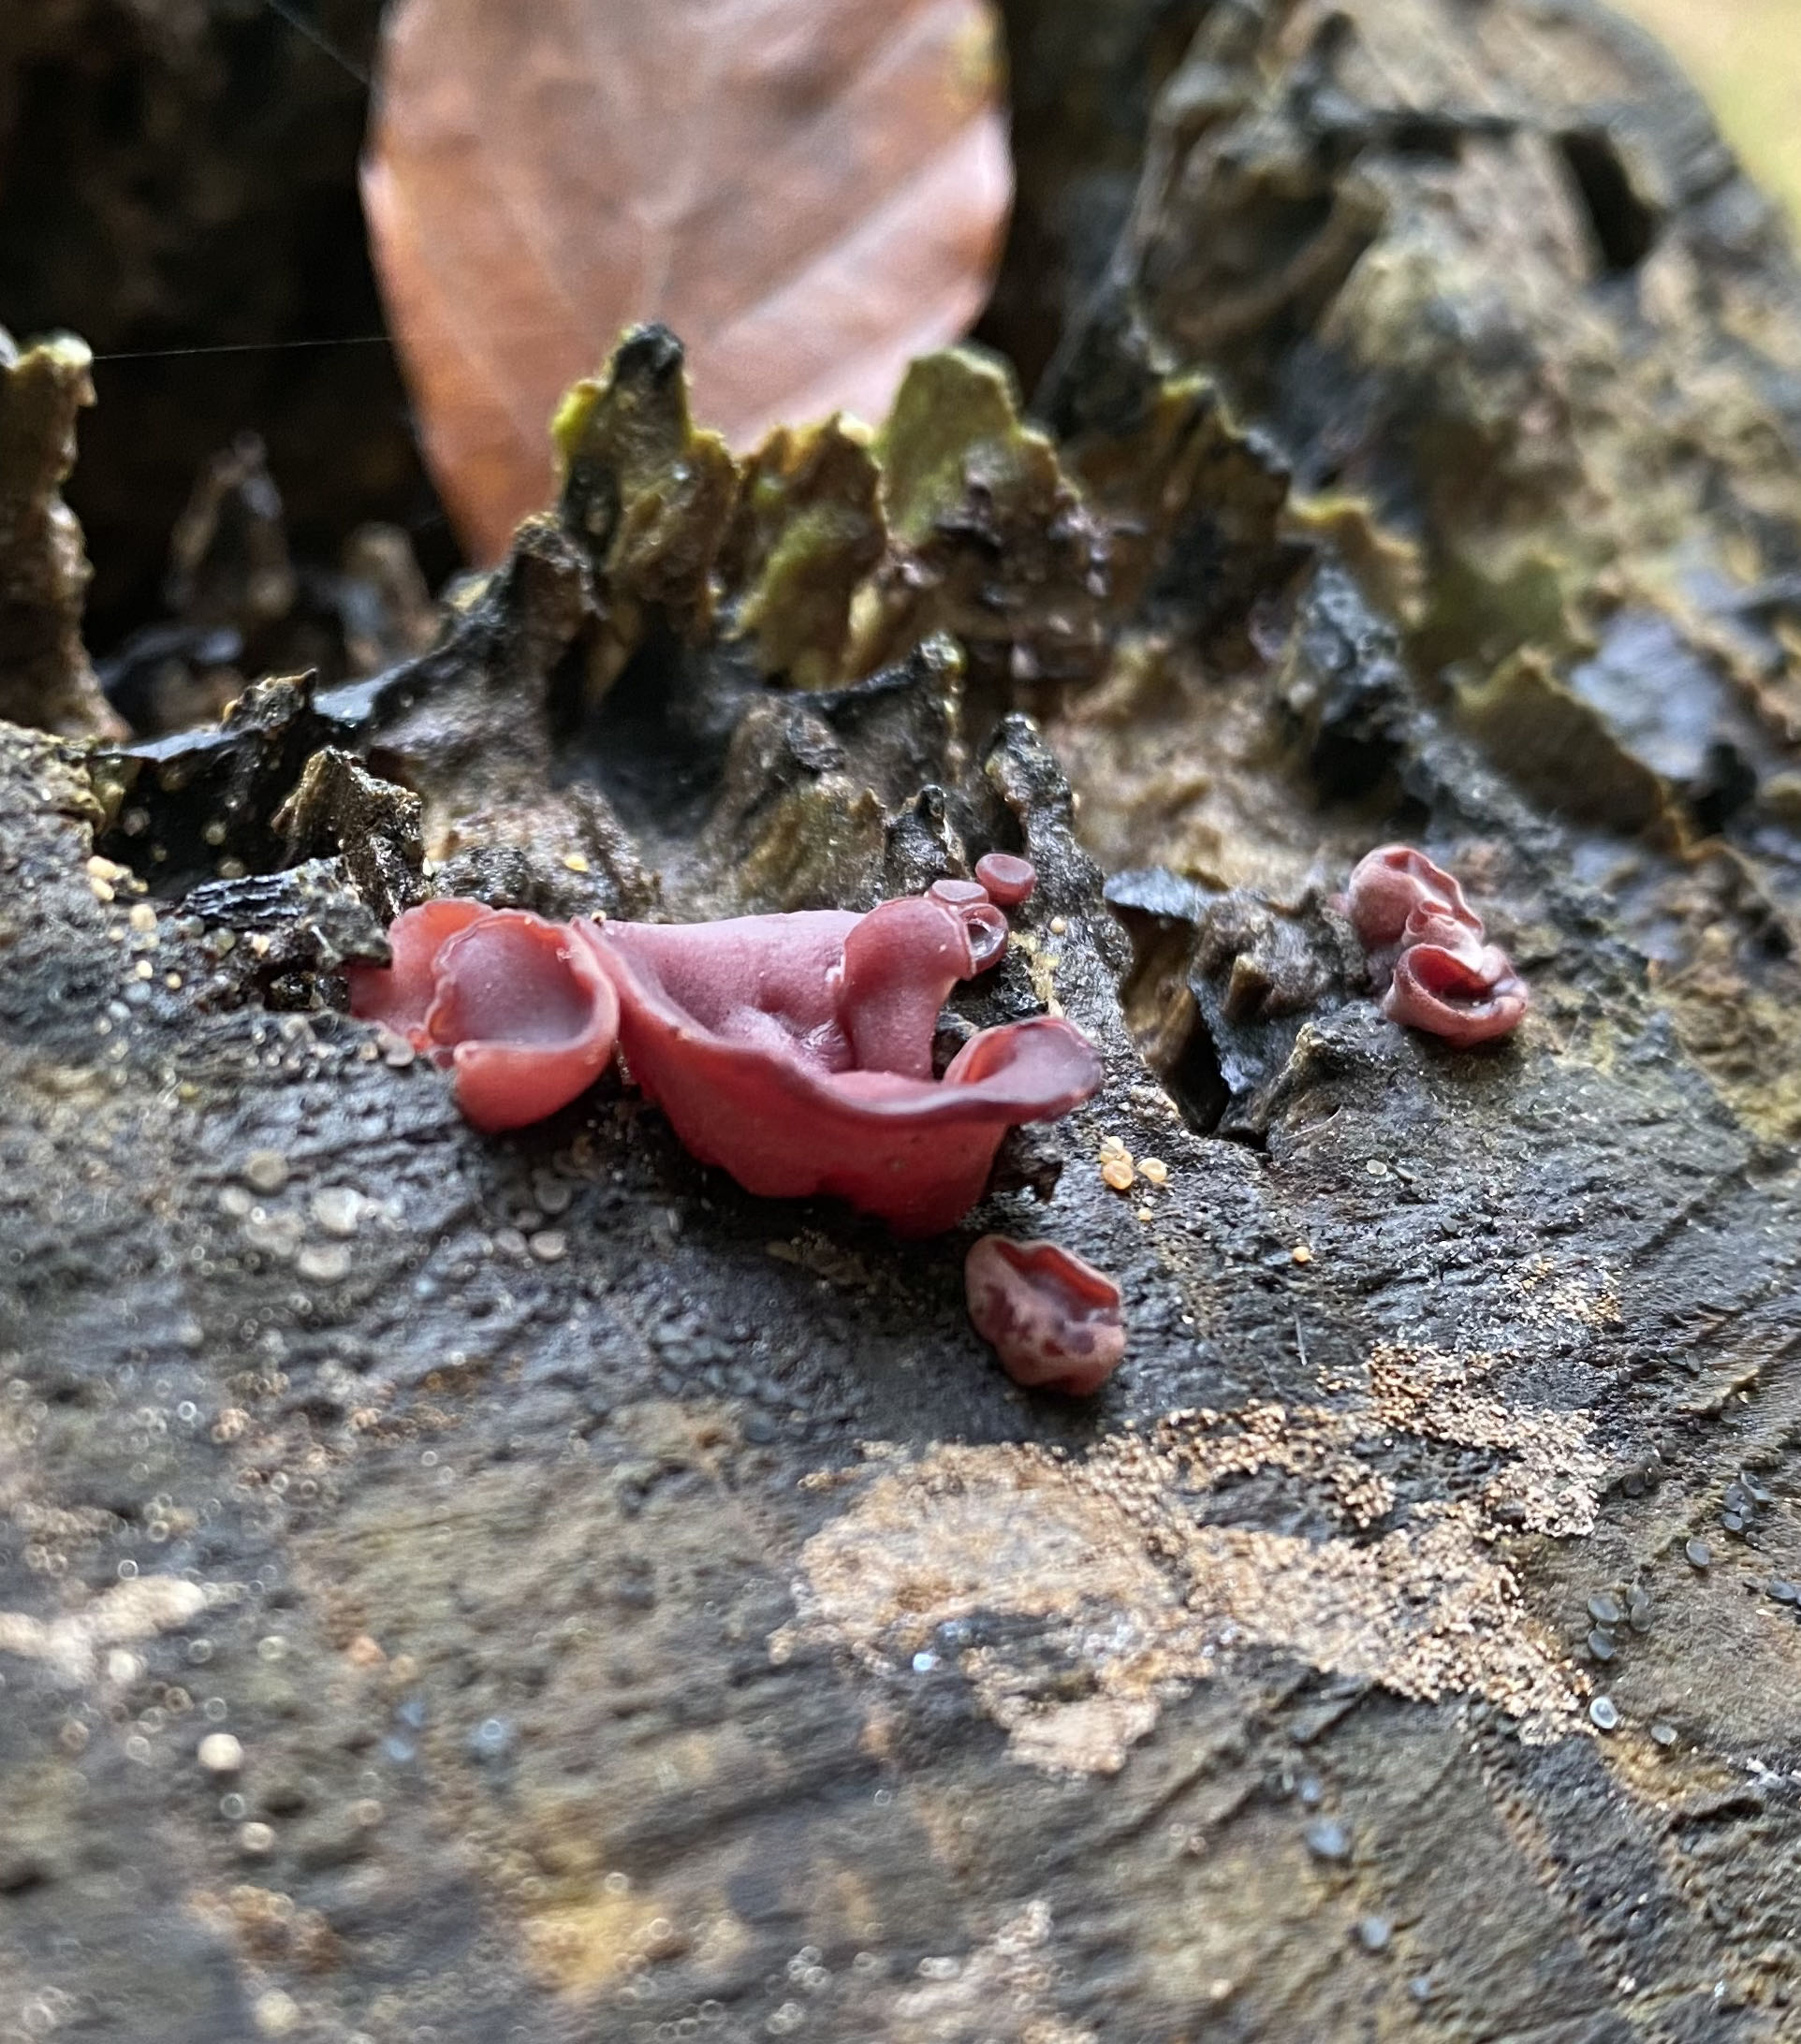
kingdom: Fungi
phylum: Ascomycota
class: Leotiomycetes
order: Helotiales
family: Gelatinodiscaceae
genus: Ascocoryne
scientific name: Ascocoryne cylichnium
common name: stor sejskive
